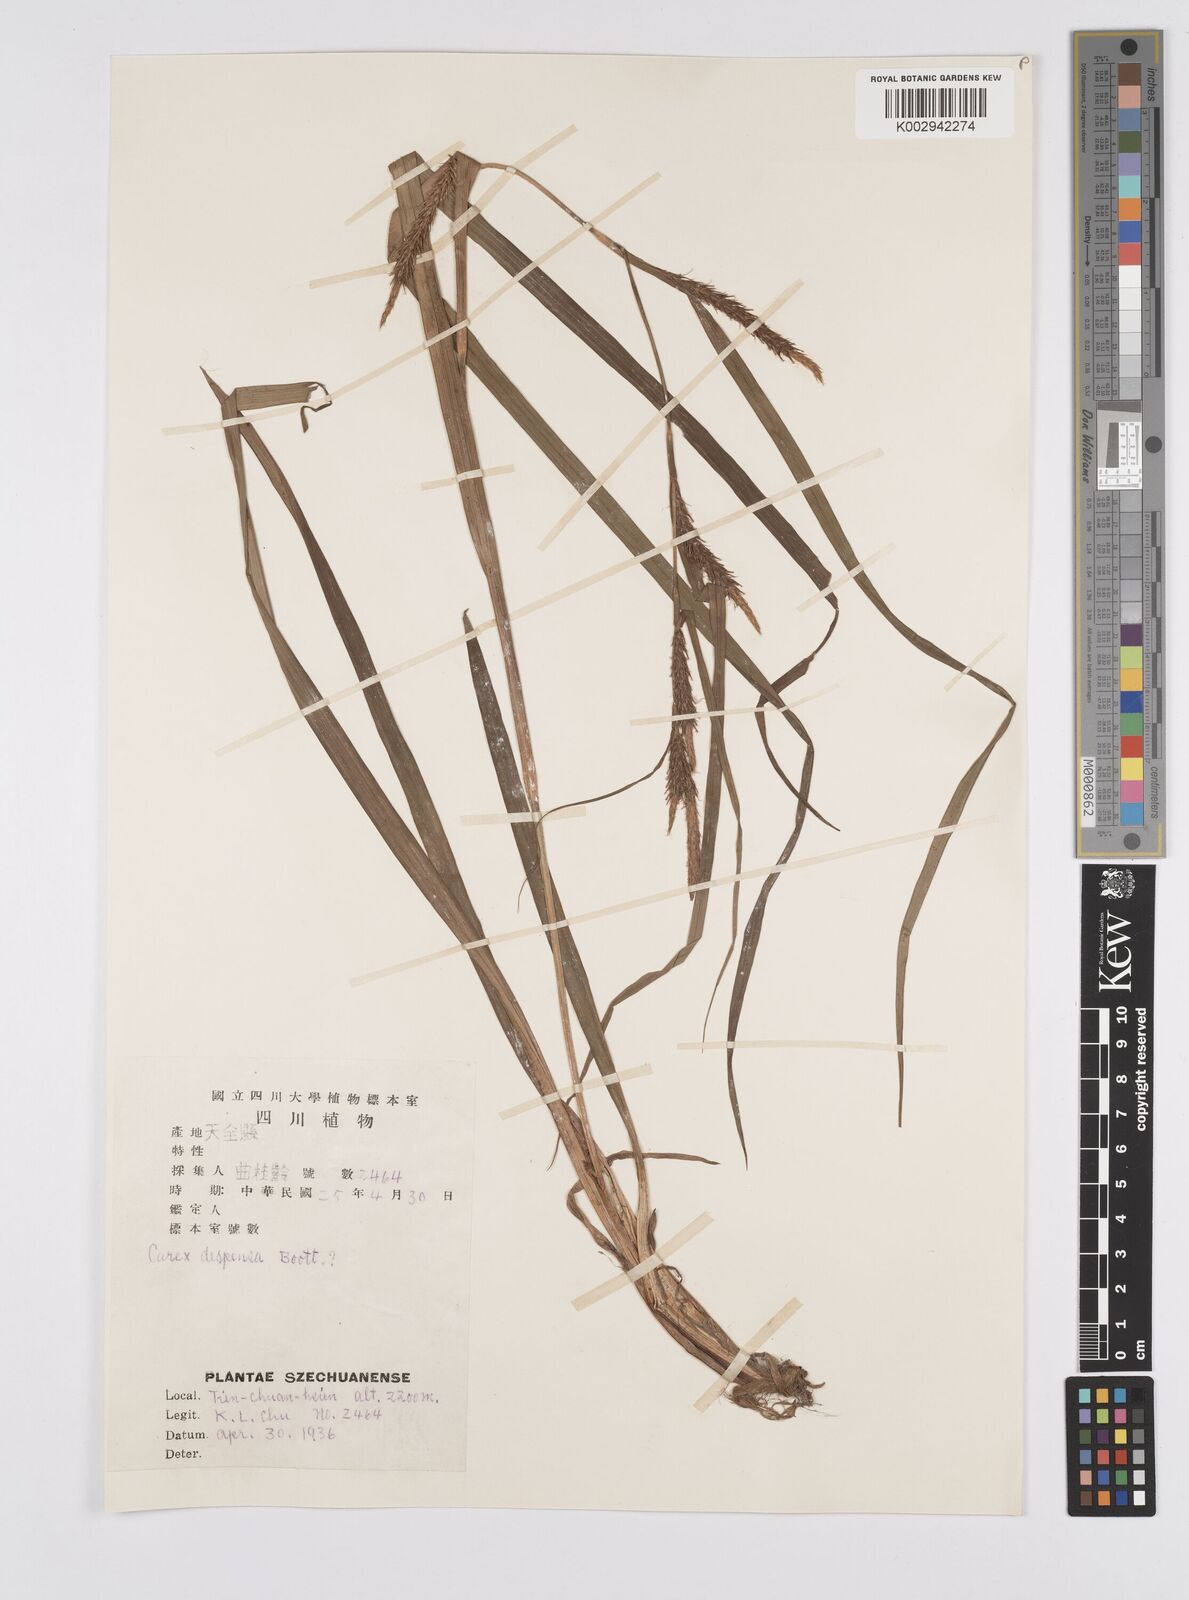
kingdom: Plantae
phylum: Tracheophyta
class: Liliopsida
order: Poales
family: Cyperaceae
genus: Carex
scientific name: Carex tenebrosa
